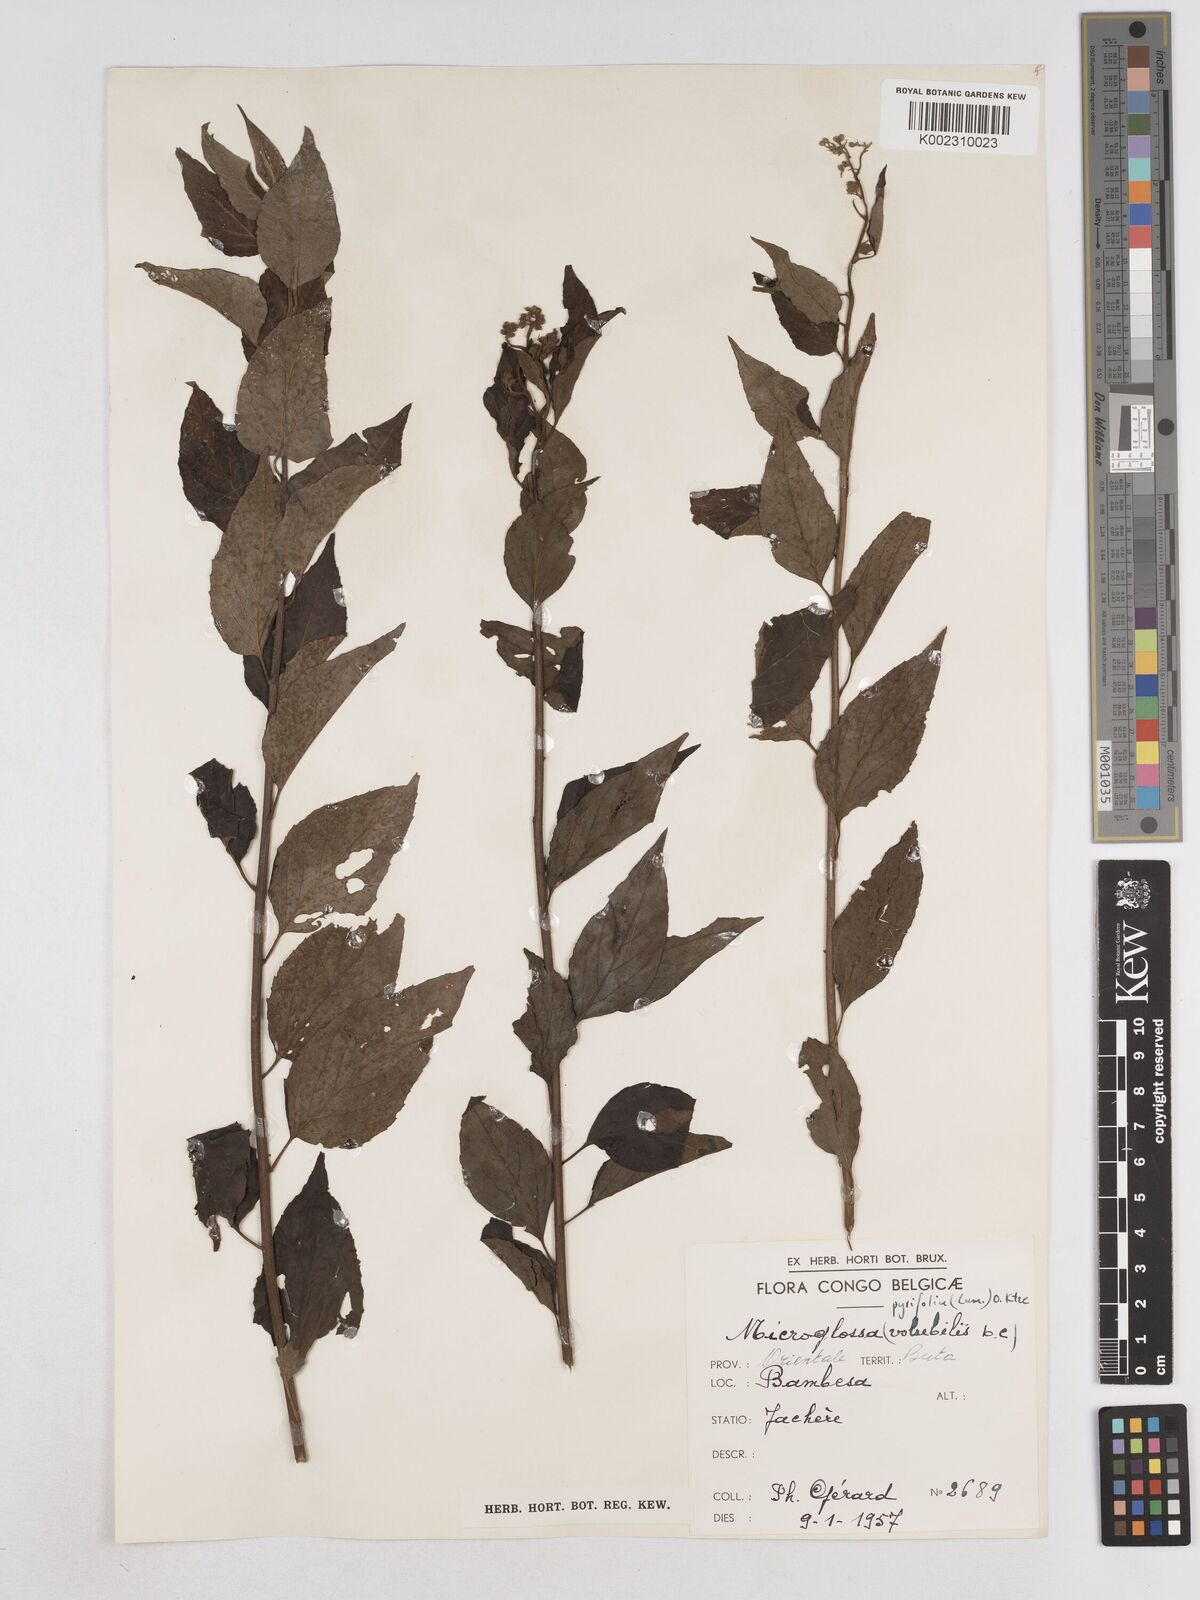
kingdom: Plantae
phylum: Tracheophyta
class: Magnoliopsida
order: Asterales
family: Asteraceae
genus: Microglossa
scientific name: Microglossa pyrifolia
